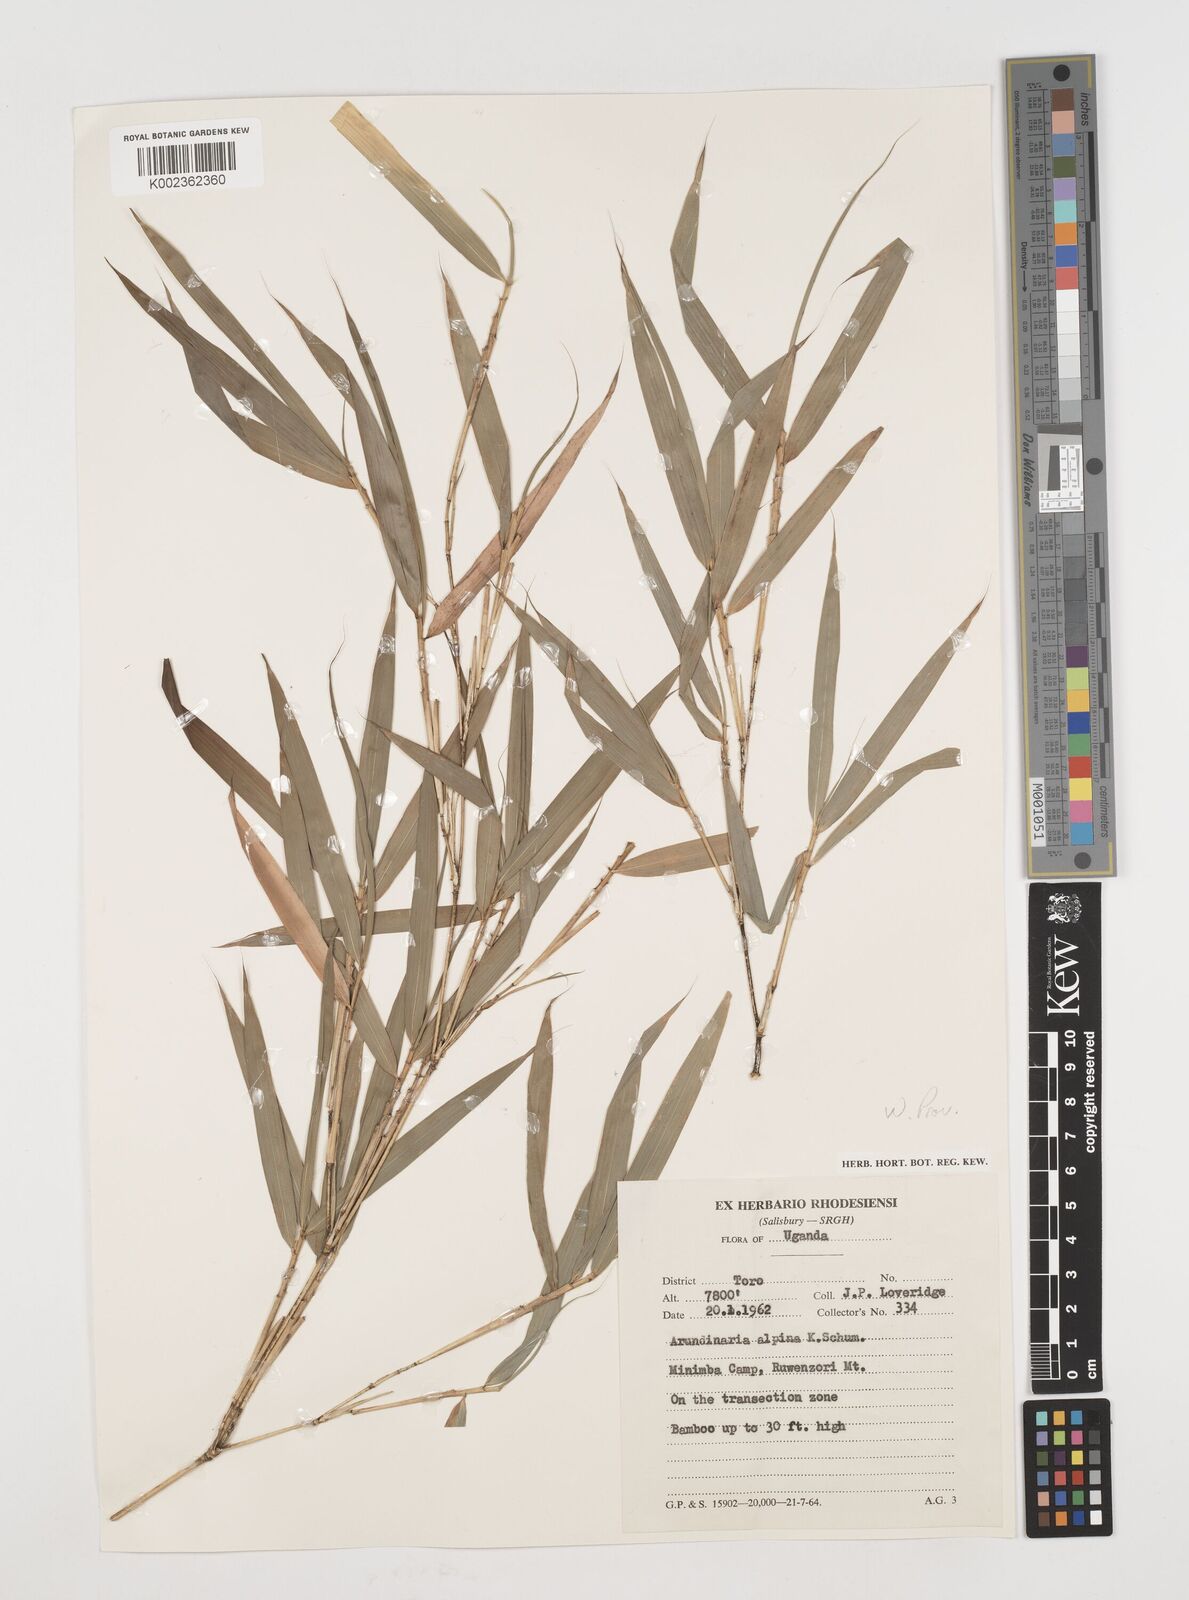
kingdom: Plantae
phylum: Tracheophyta
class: Liliopsida
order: Poales
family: Poaceae
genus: Oldeania
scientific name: Oldeania alpina
